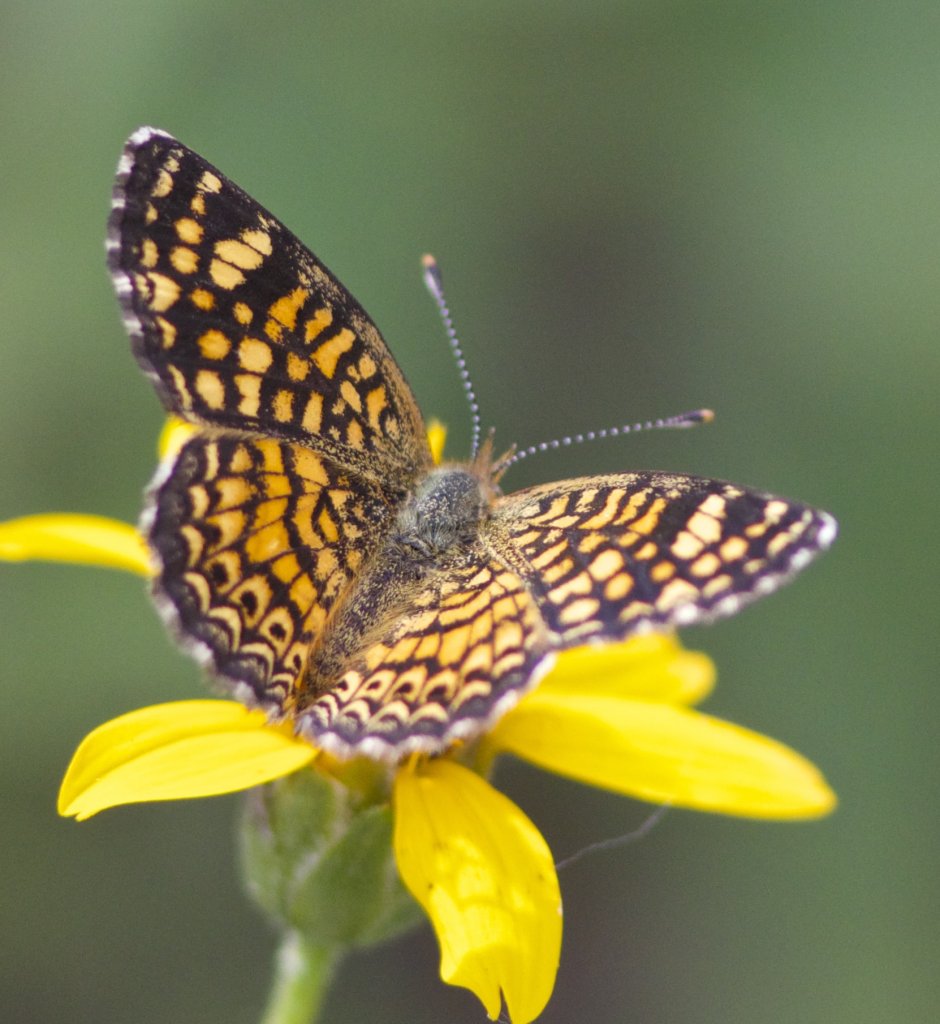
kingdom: Animalia
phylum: Arthropoda
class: Insecta
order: Lepidoptera
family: Nymphalidae
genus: Phyciodes
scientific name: Phyciodes vesta
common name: Vesta Crescent
